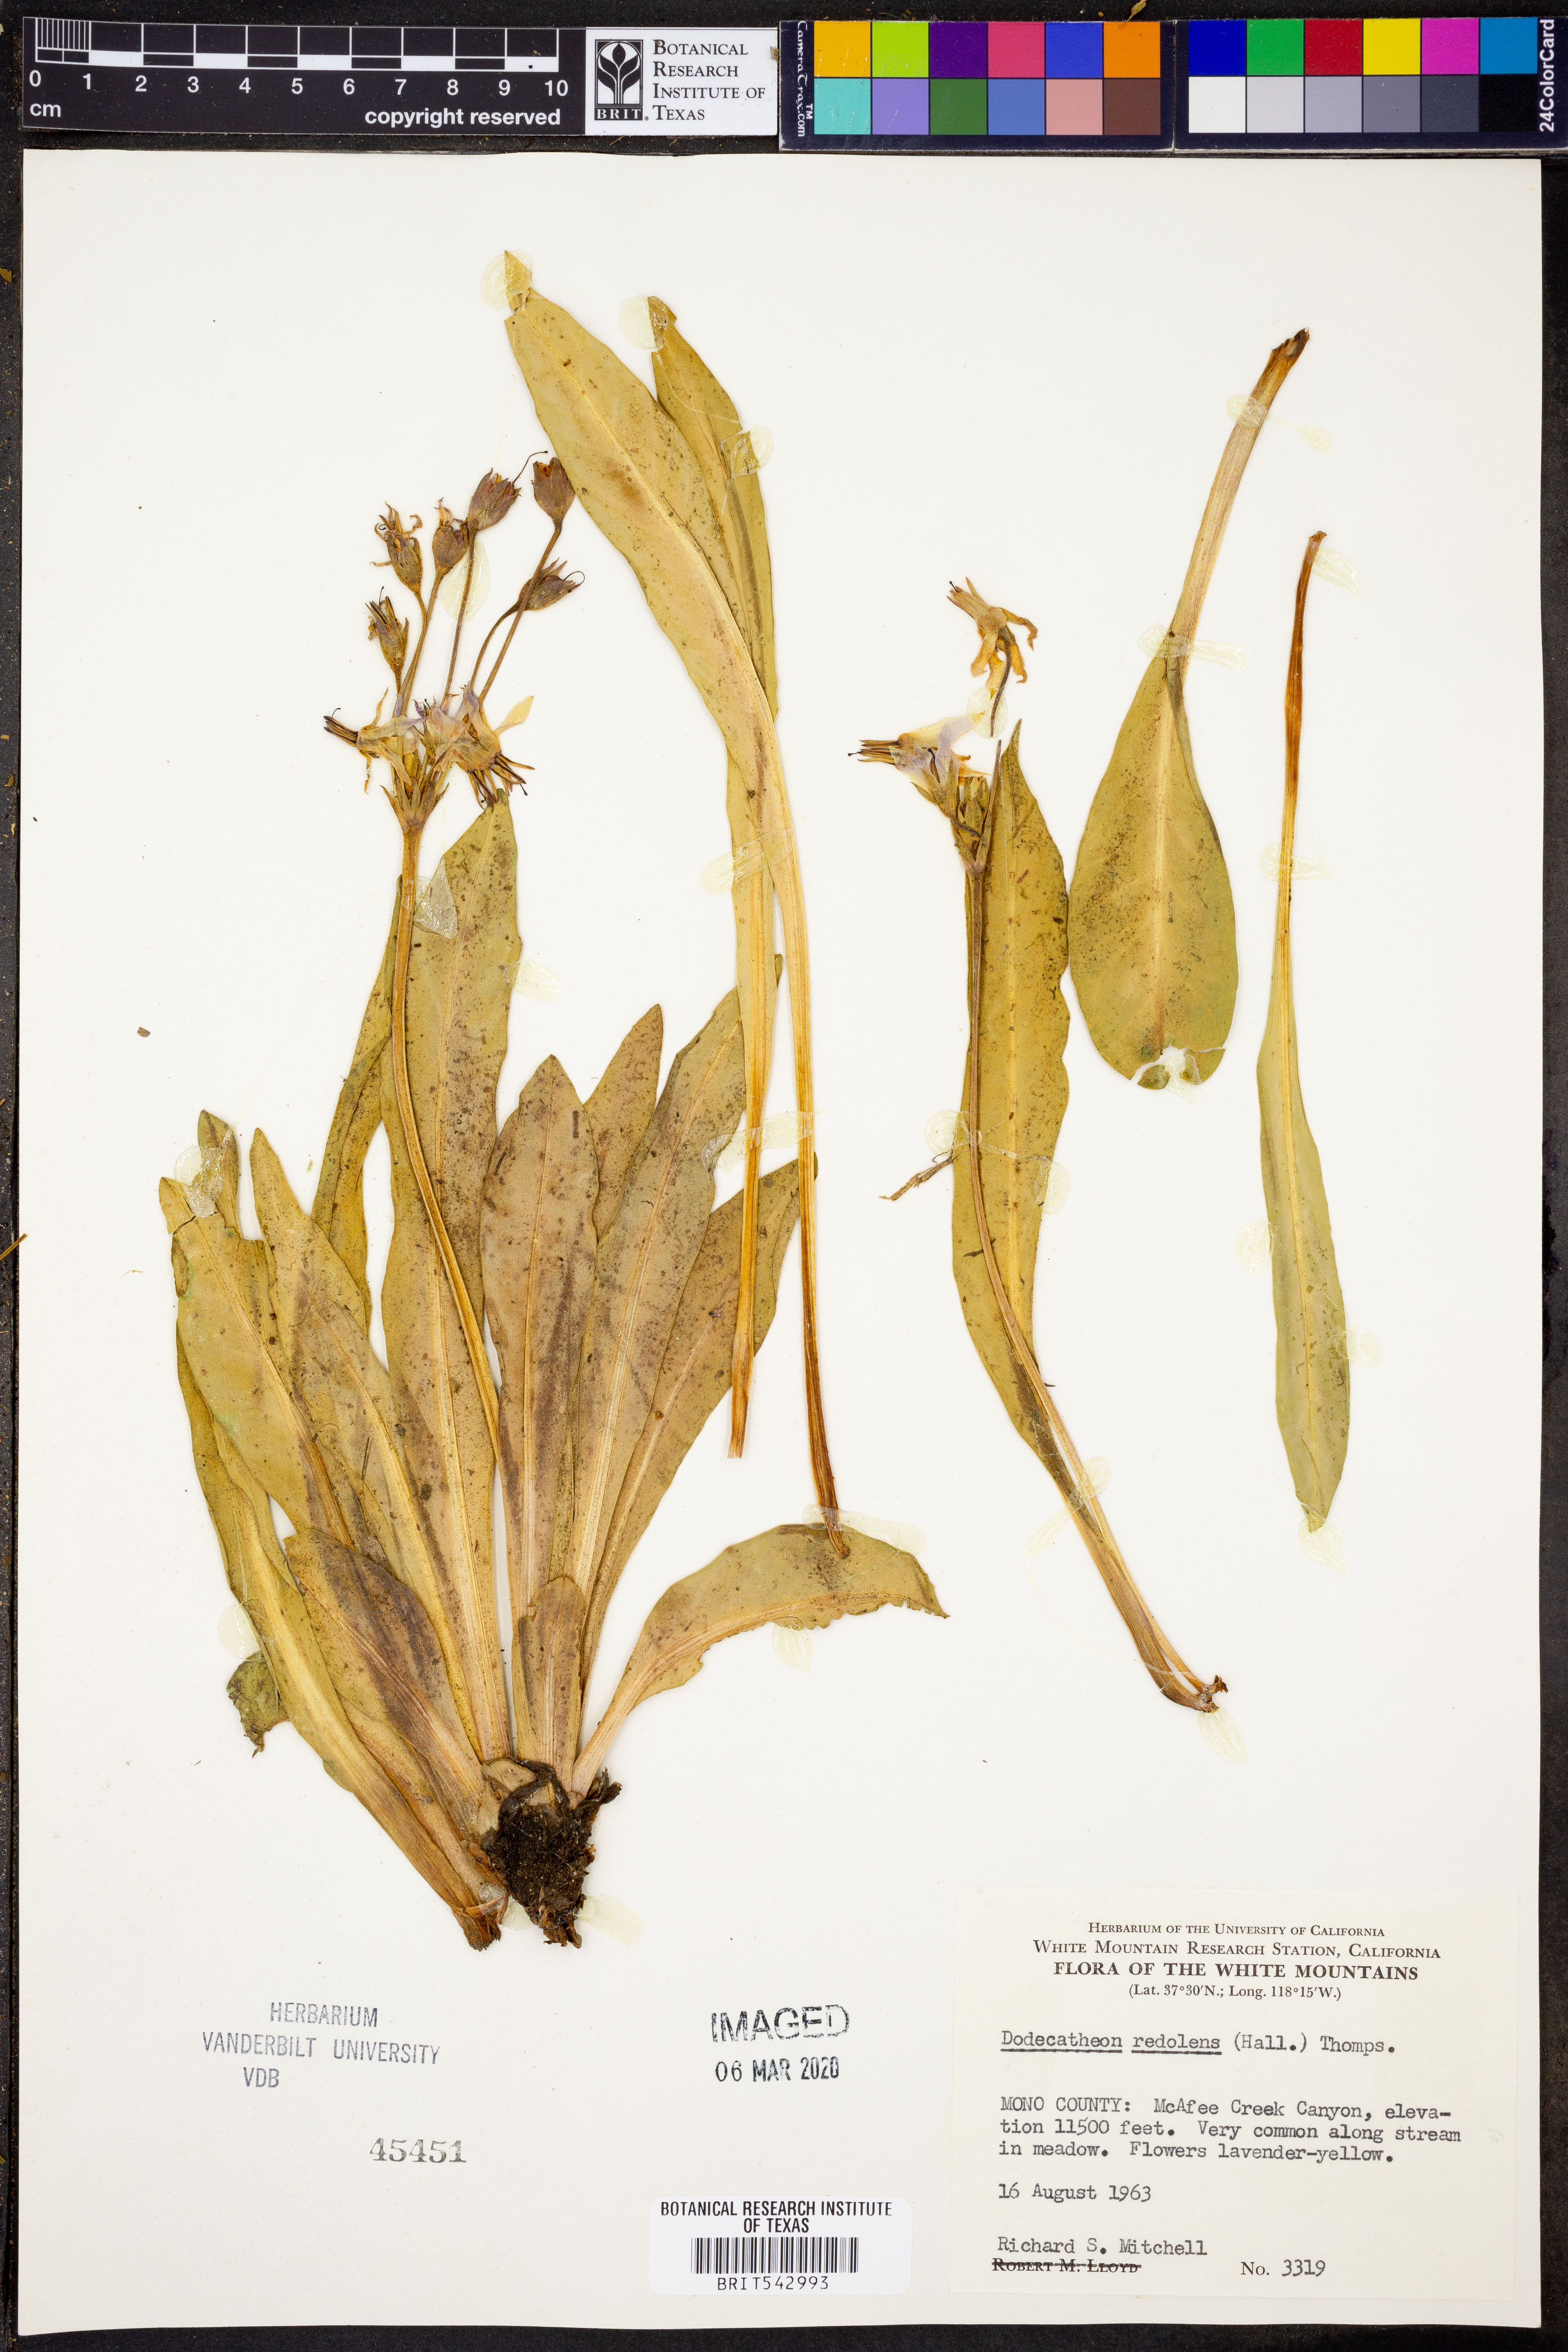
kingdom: Plantae
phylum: Tracheophyta
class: Magnoliopsida
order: Ericales
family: Primulaceae
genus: Dodecatheon
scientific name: Dodecatheon redolens
